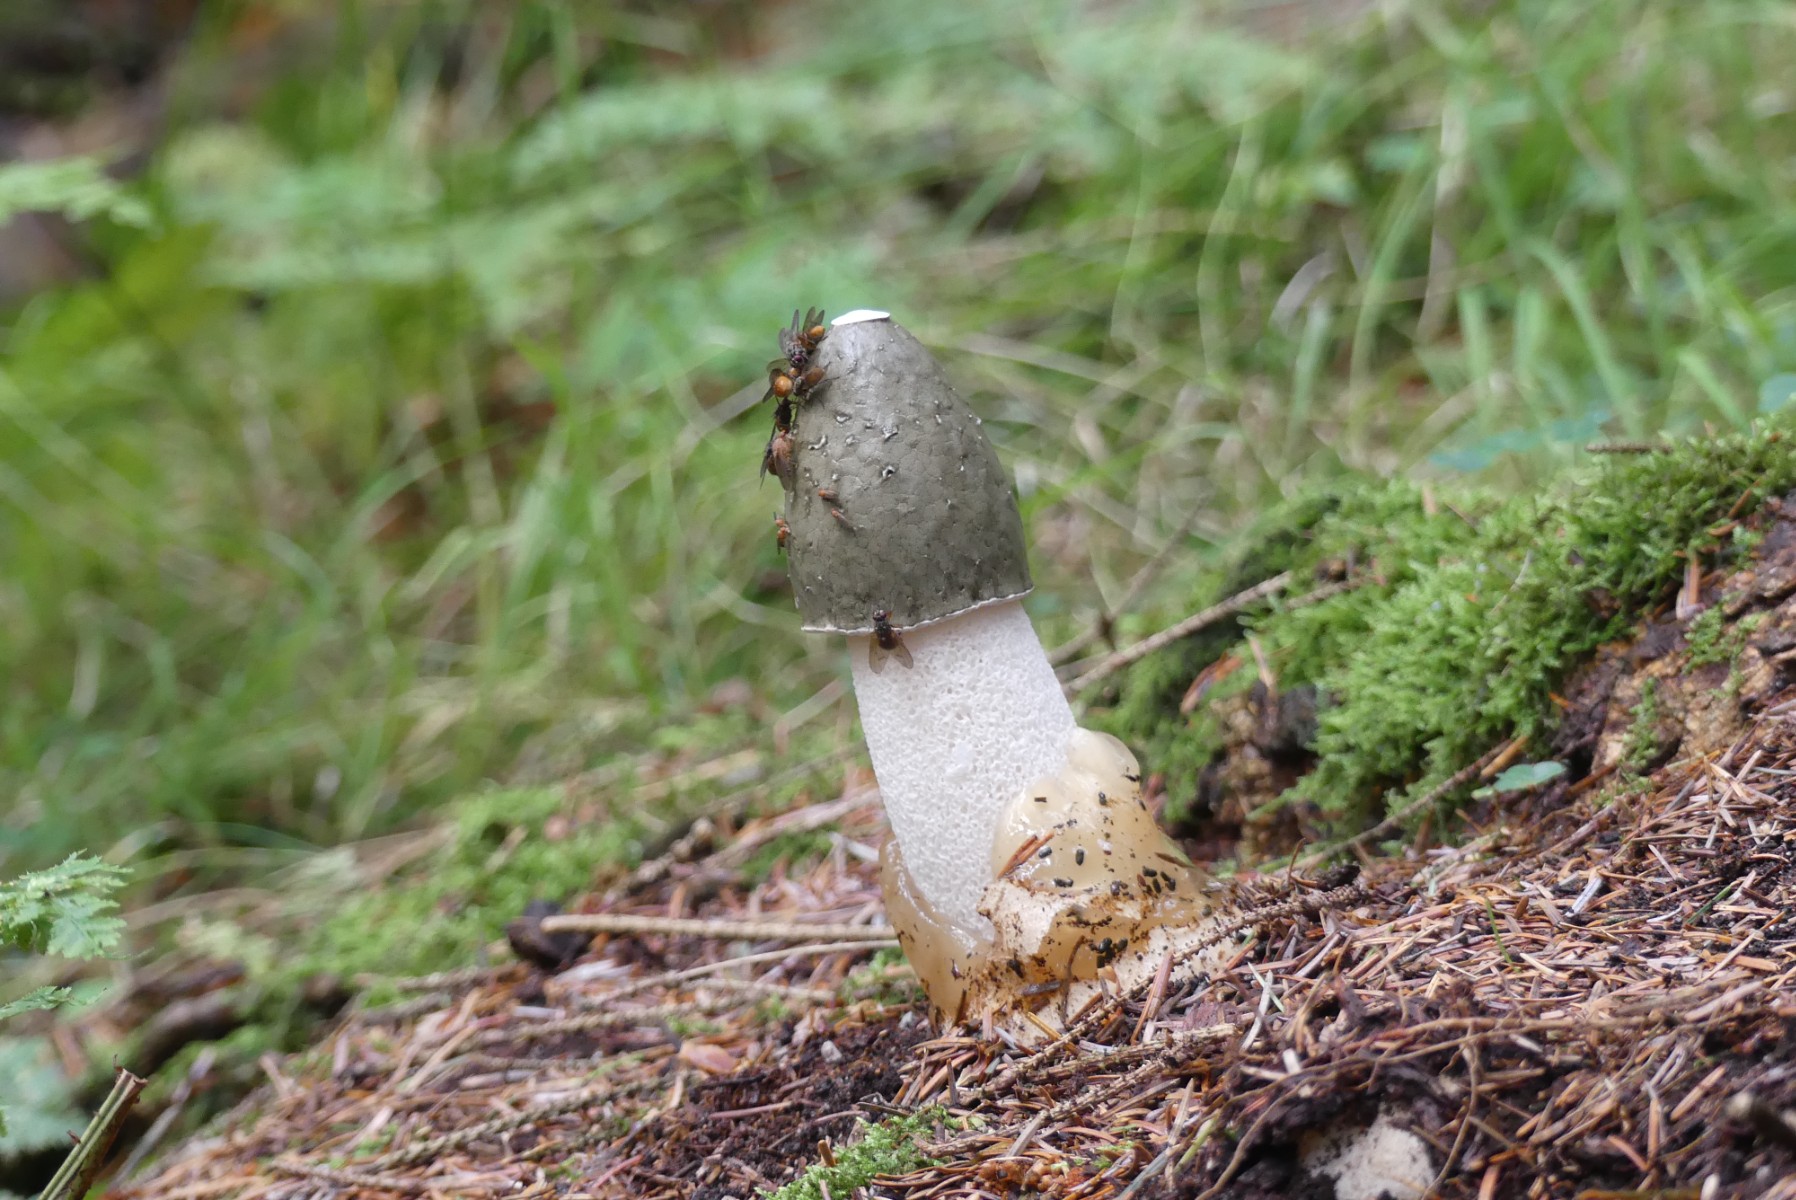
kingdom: Fungi
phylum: Basidiomycota
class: Agaricomycetes
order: Phallales
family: Phallaceae
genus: Phallus
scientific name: Phallus impudicus
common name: almindelig stinksvamp
